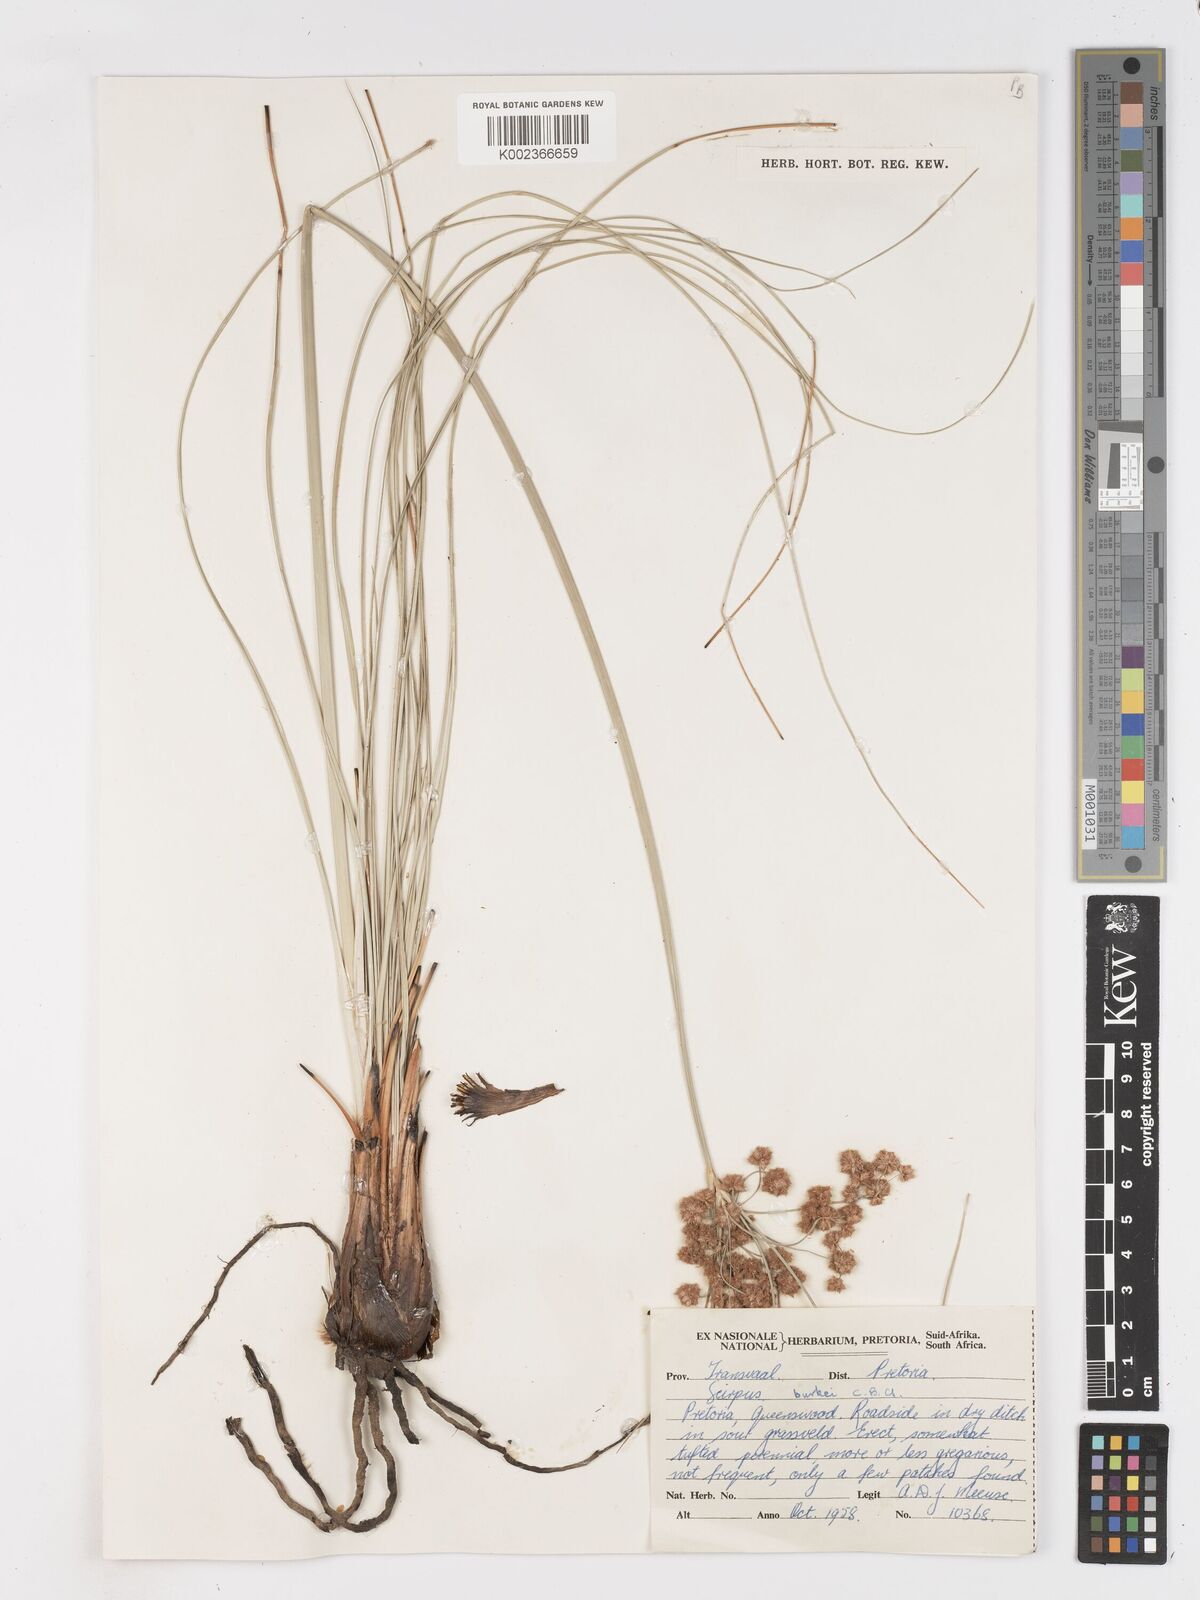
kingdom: Plantae
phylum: Tracheophyta
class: Liliopsida
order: Poales
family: Cyperaceae
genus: Scirpoides
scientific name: Scirpoides burkei
